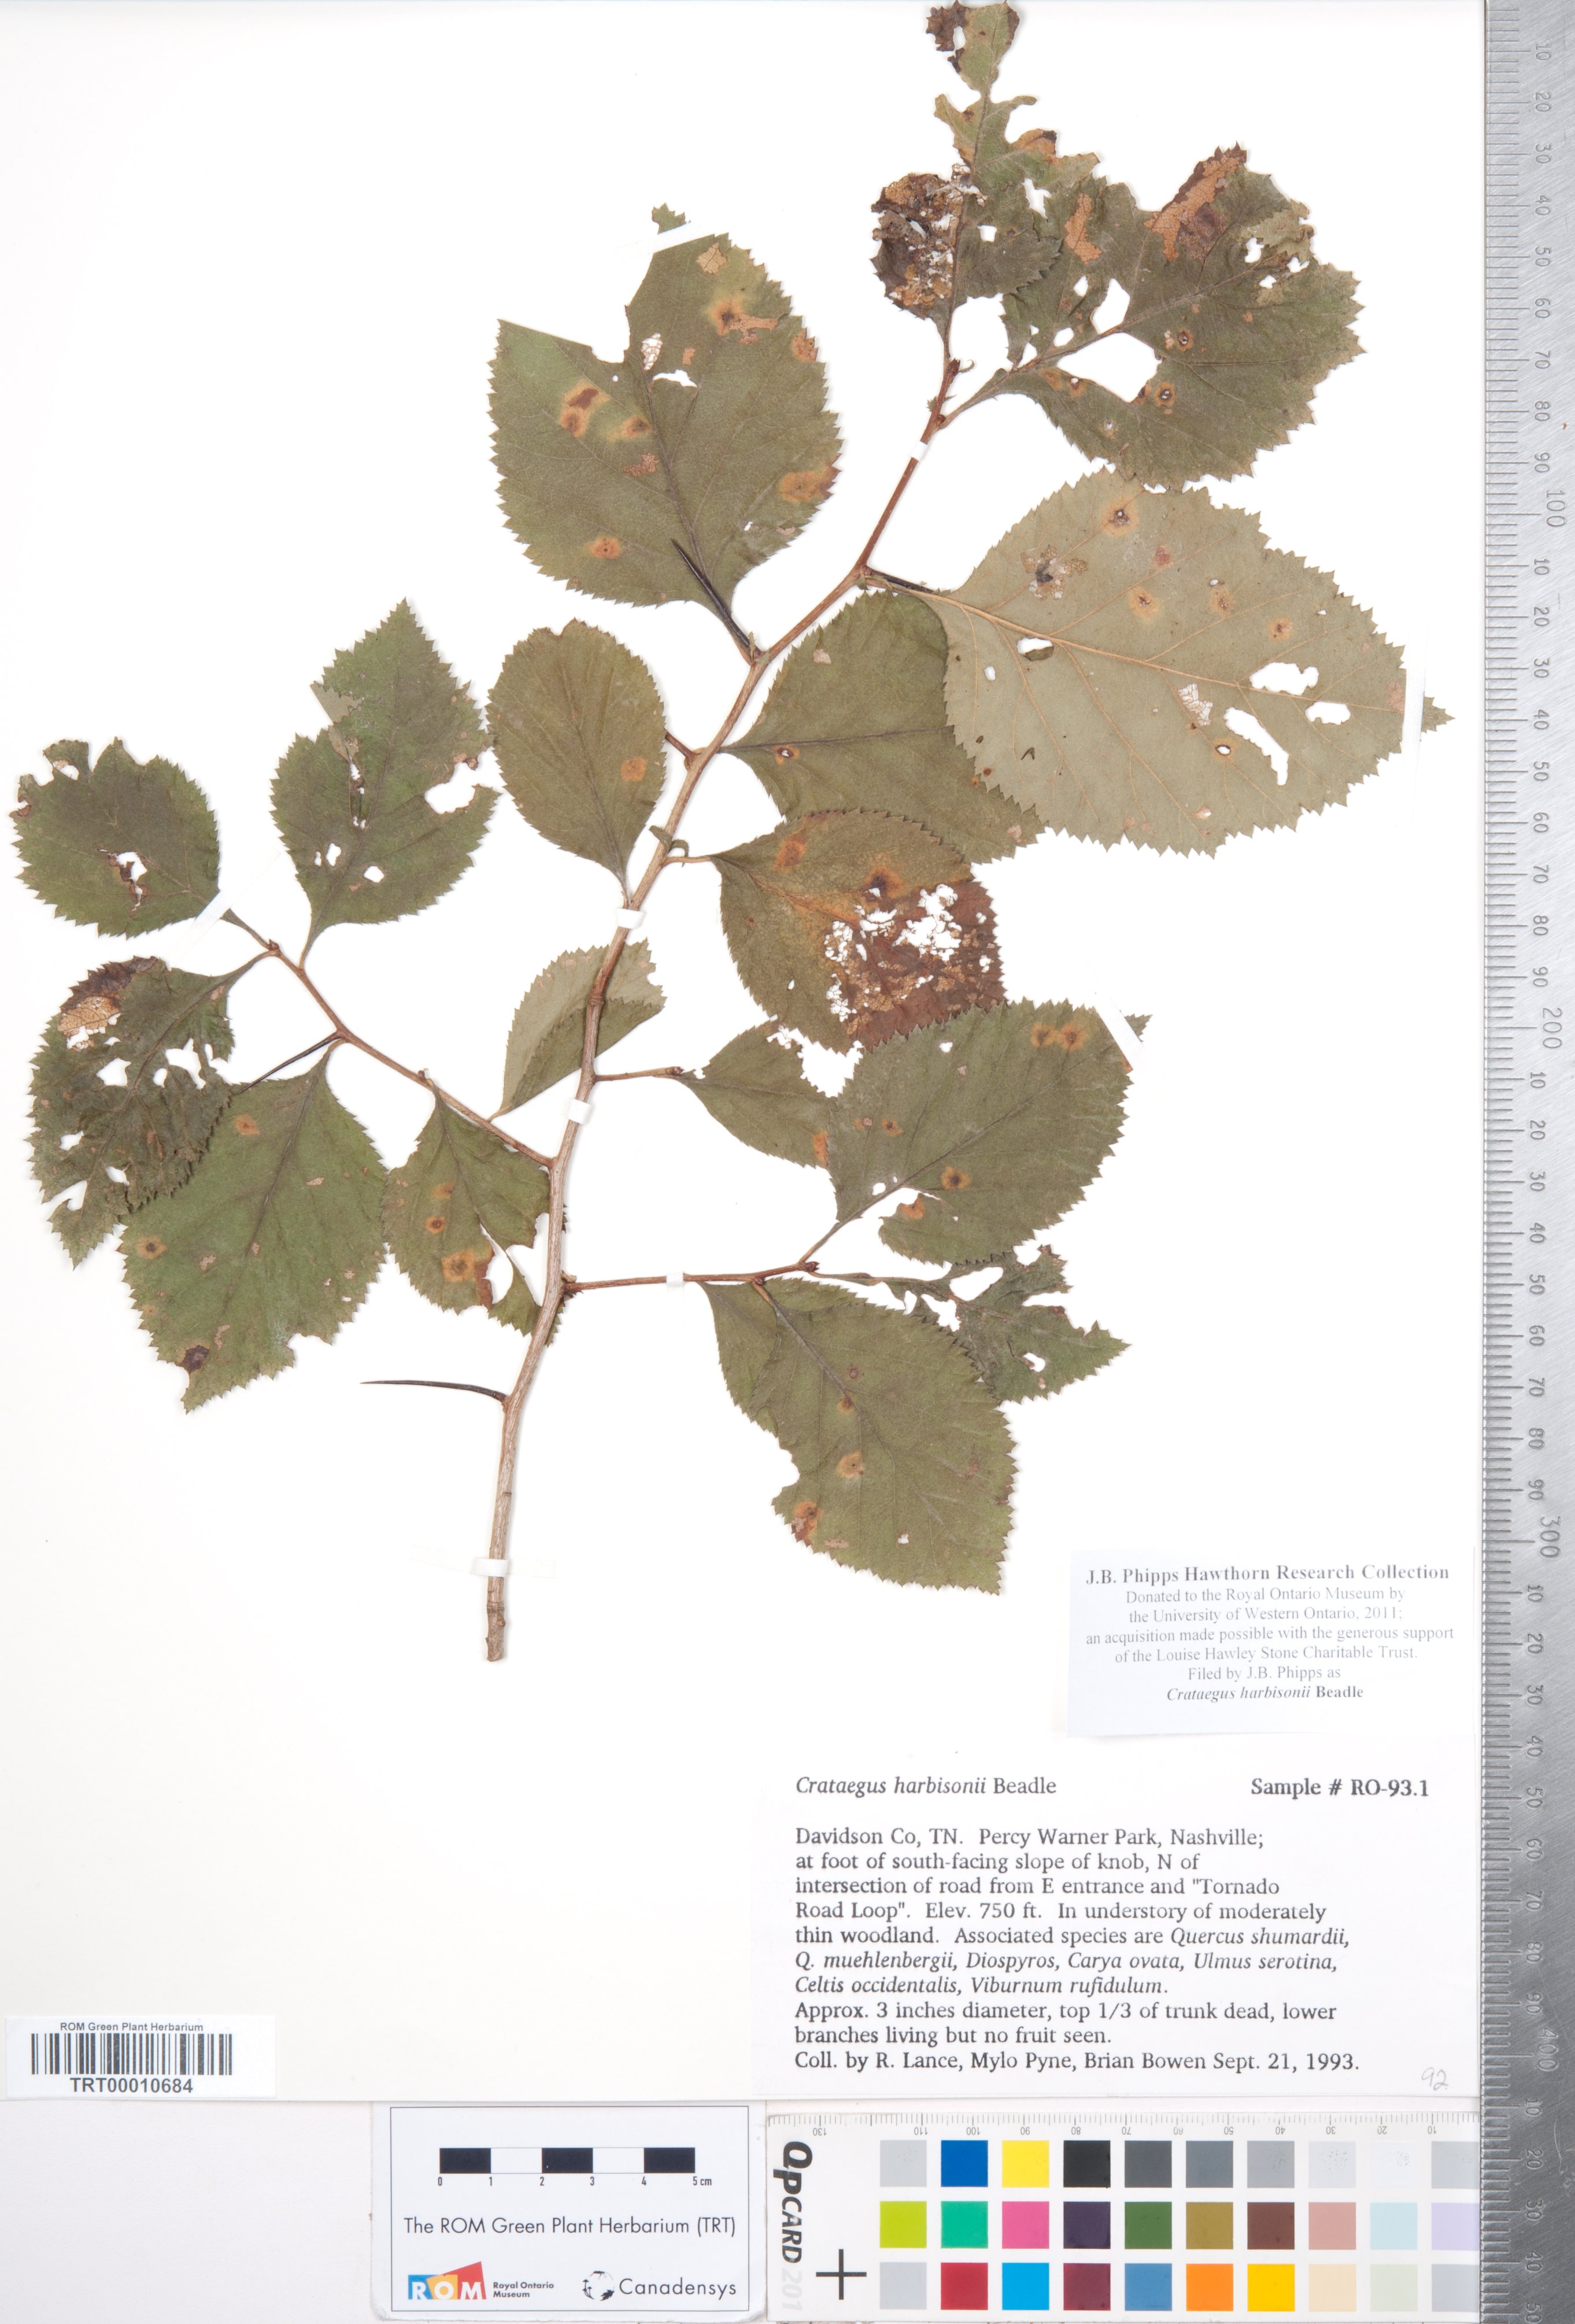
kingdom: Plantae
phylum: Tracheophyta
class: Magnoliopsida
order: Rosales
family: Rosaceae
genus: Crataegus
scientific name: Crataegus harbisonii
